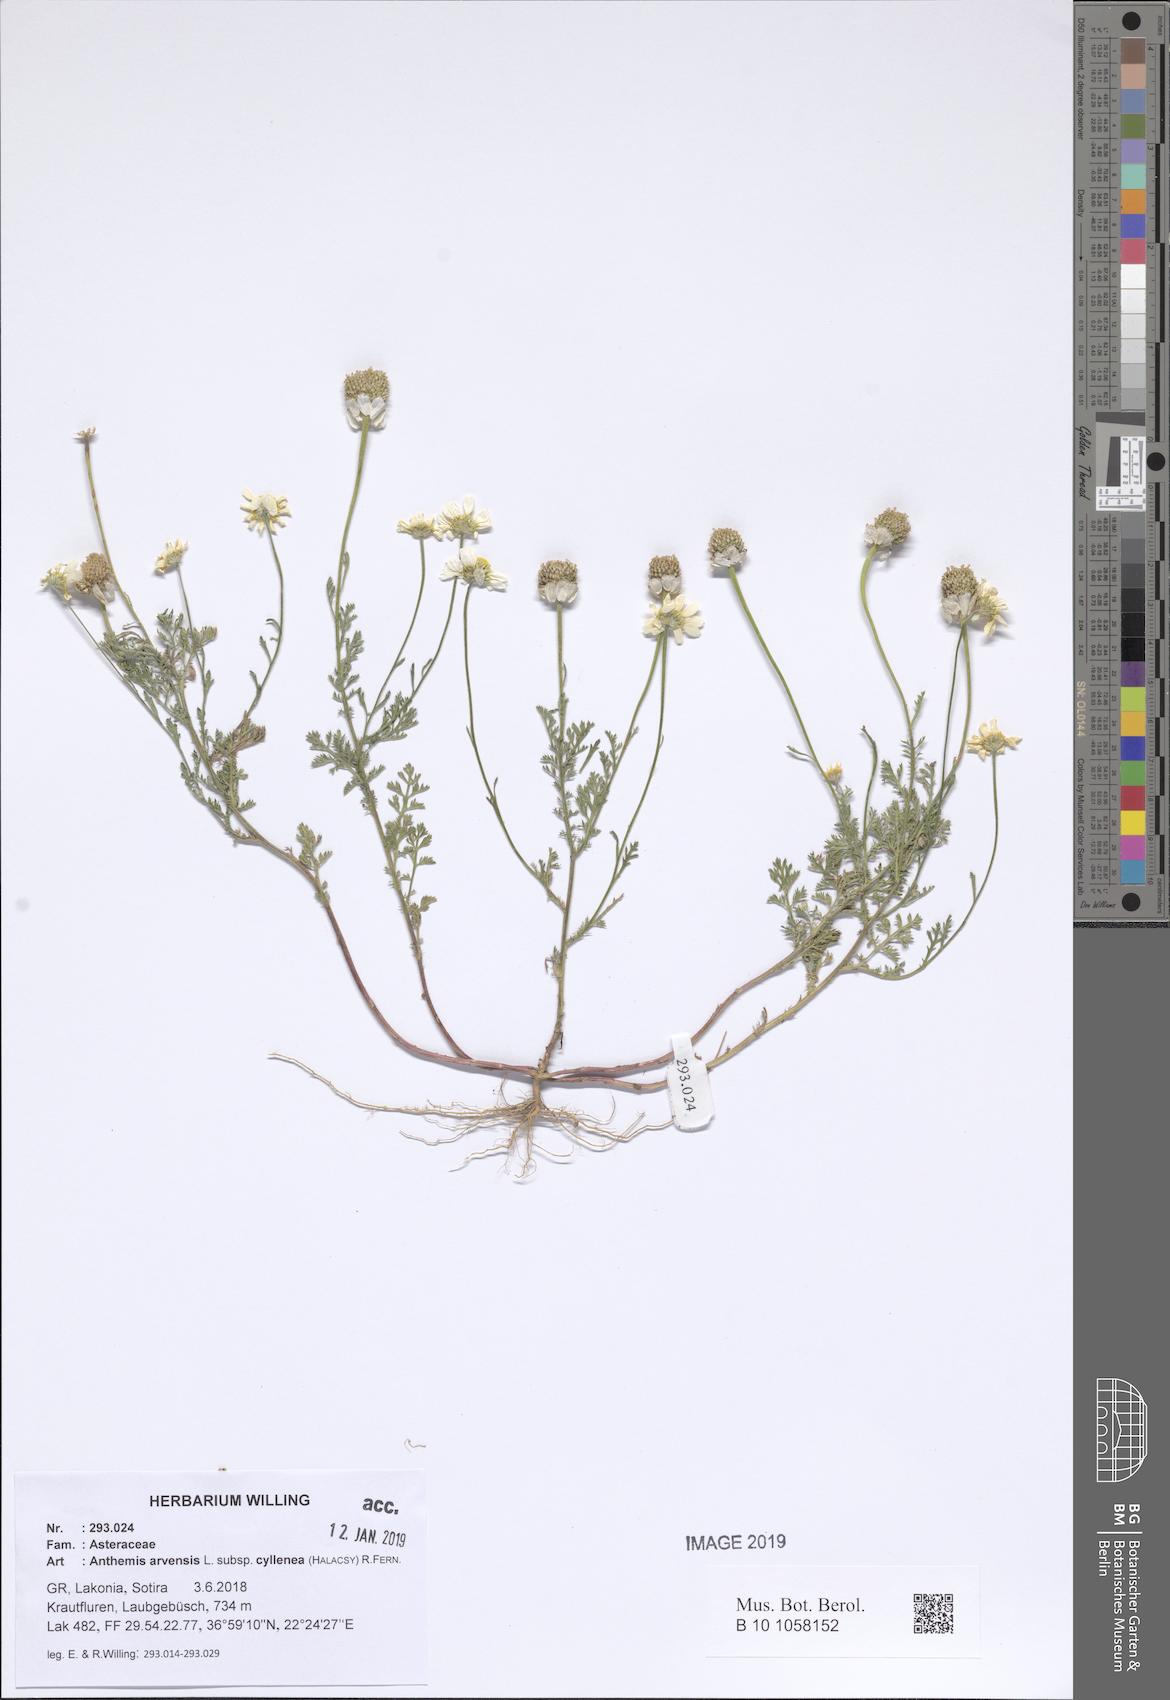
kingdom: Plantae
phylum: Tracheophyta
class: Magnoliopsida
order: Asterales
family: Asteraceae
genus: Anthemis
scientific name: Anthemis arvensis
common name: Corn chamomile
